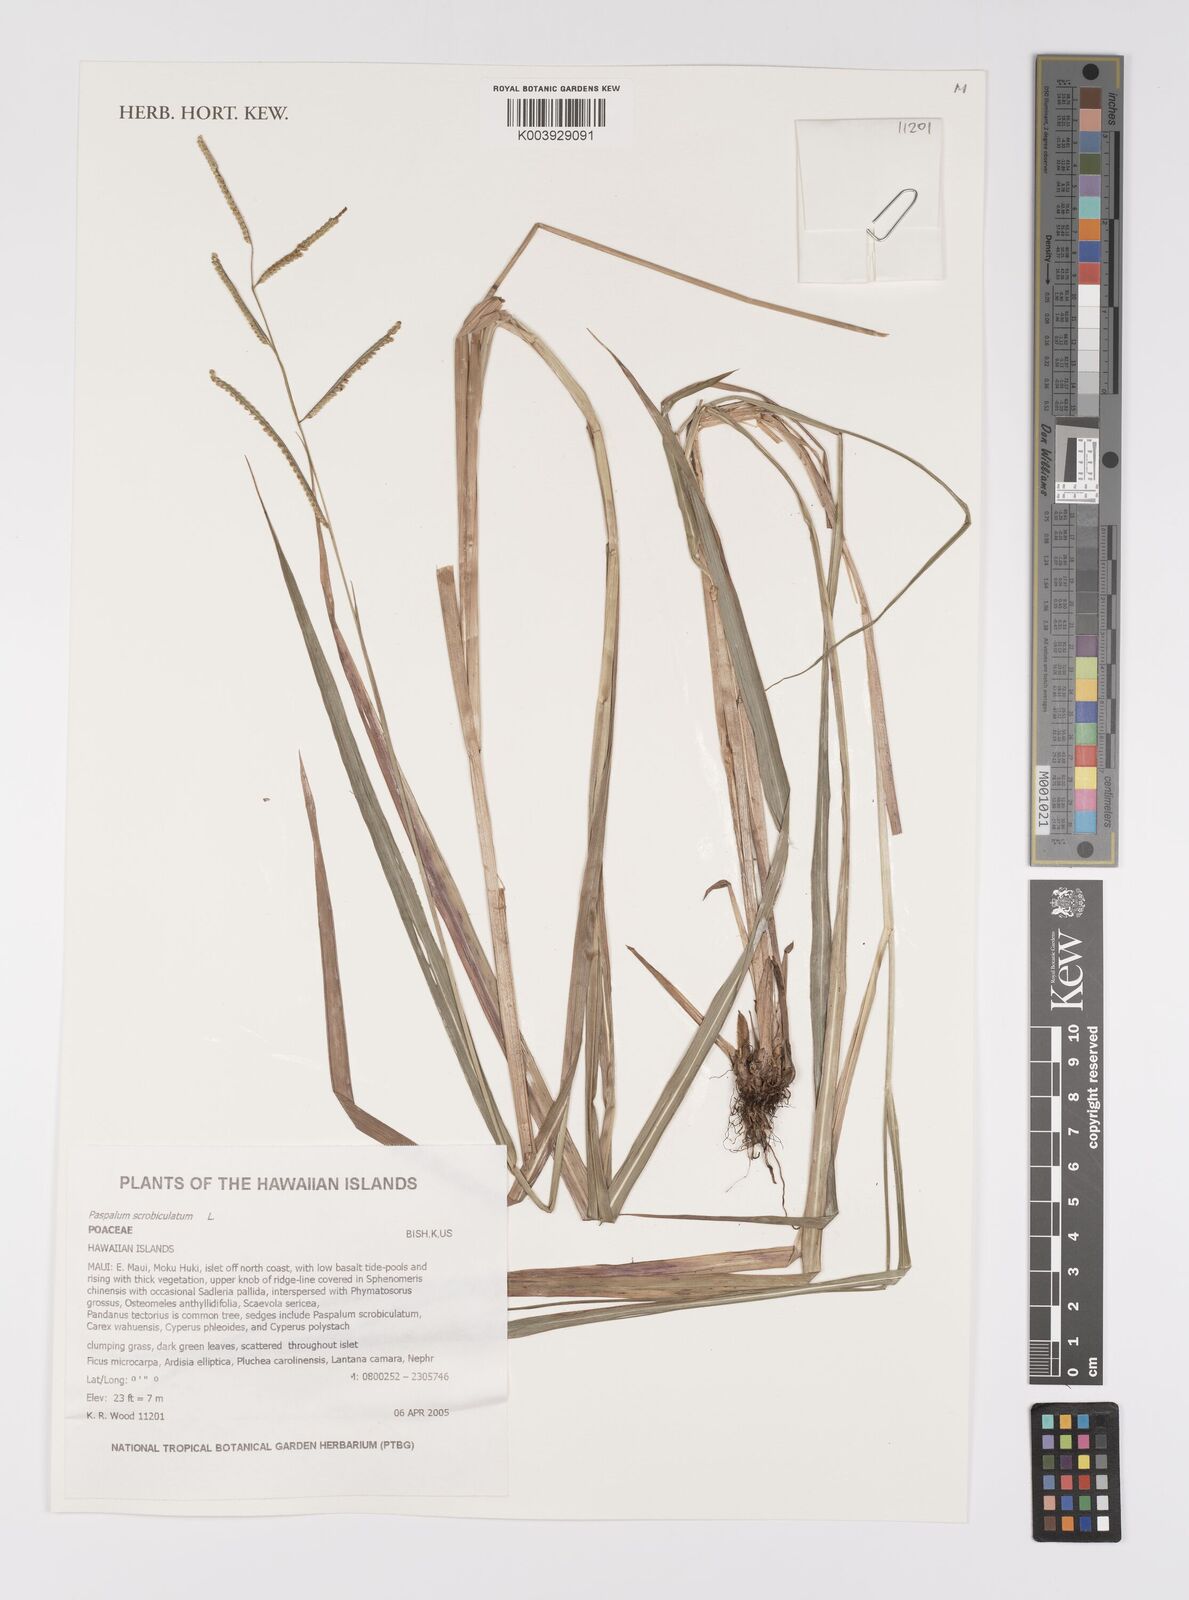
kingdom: Plantae
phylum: Tracheophyta
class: Liliopsida
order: Poales
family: Poaceae
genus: Paspalum
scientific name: Paspalum scrobiculatum
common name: Kodo millet
